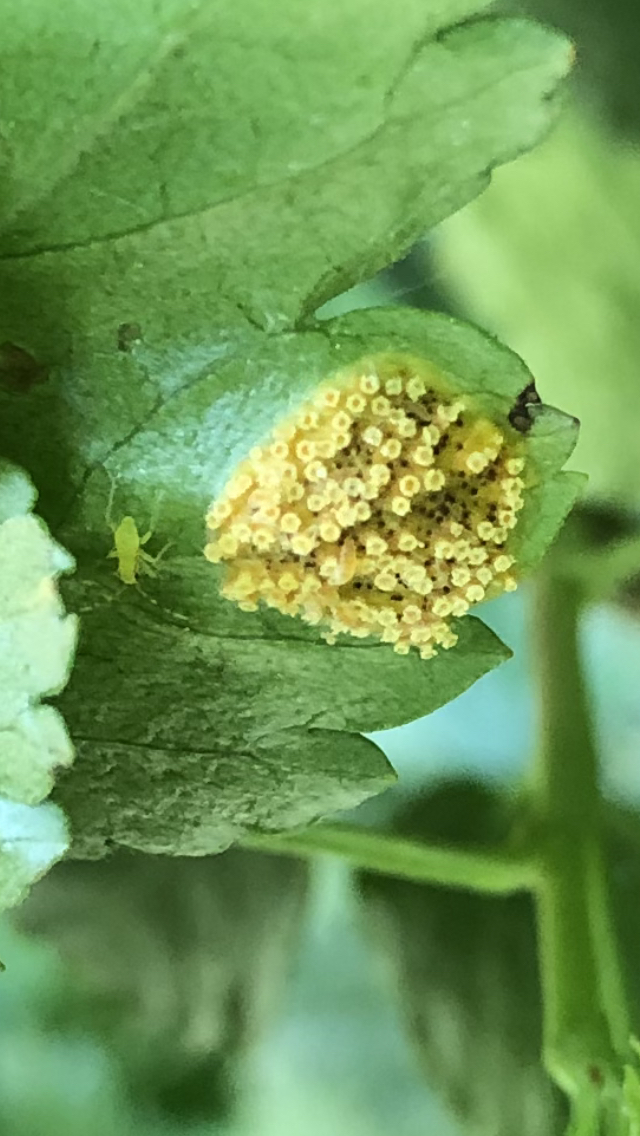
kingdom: Fungi
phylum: Basidiomycota
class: Pucciniomycetes
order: Pucciniales
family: Pucciniaceae
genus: Puccinia
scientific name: Puccinia caricina
